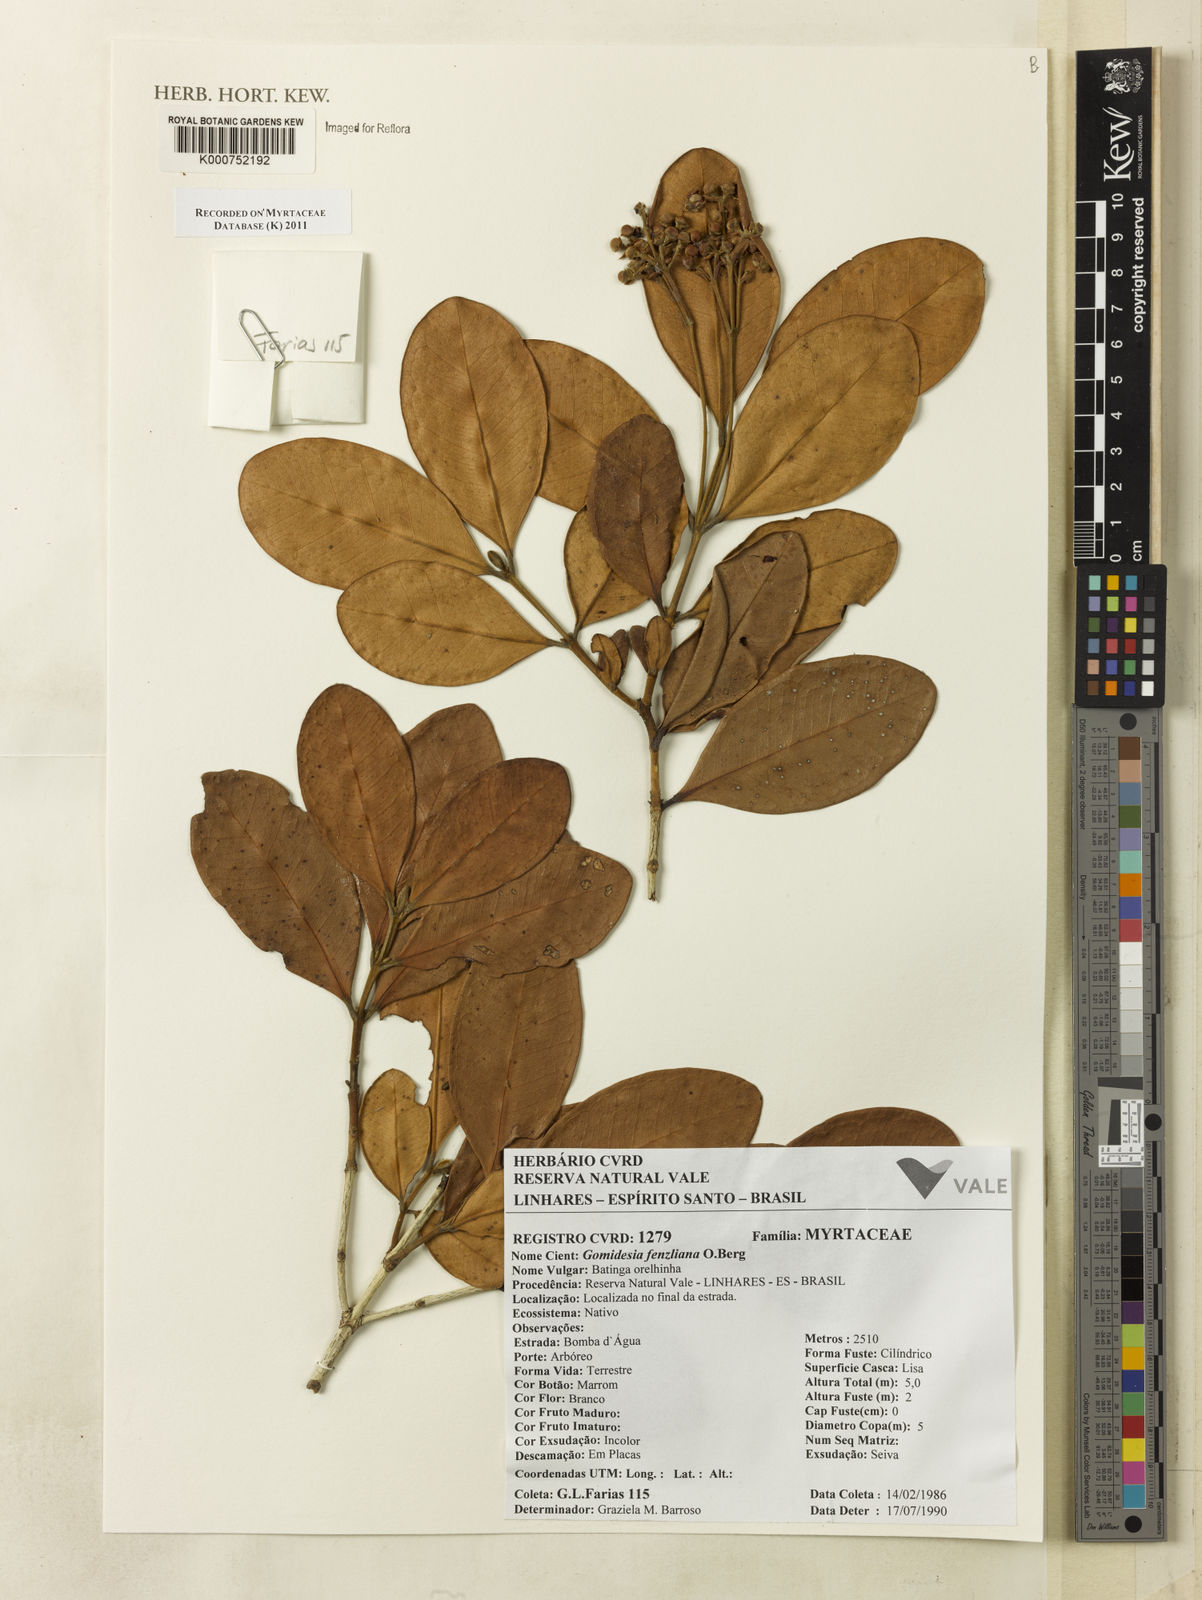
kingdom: Plantae
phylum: Tracheophyta
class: Magnoliopsida
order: Myrtales
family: Myrtaceae
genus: Myrcia
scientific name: Myrcia ilheosensis
